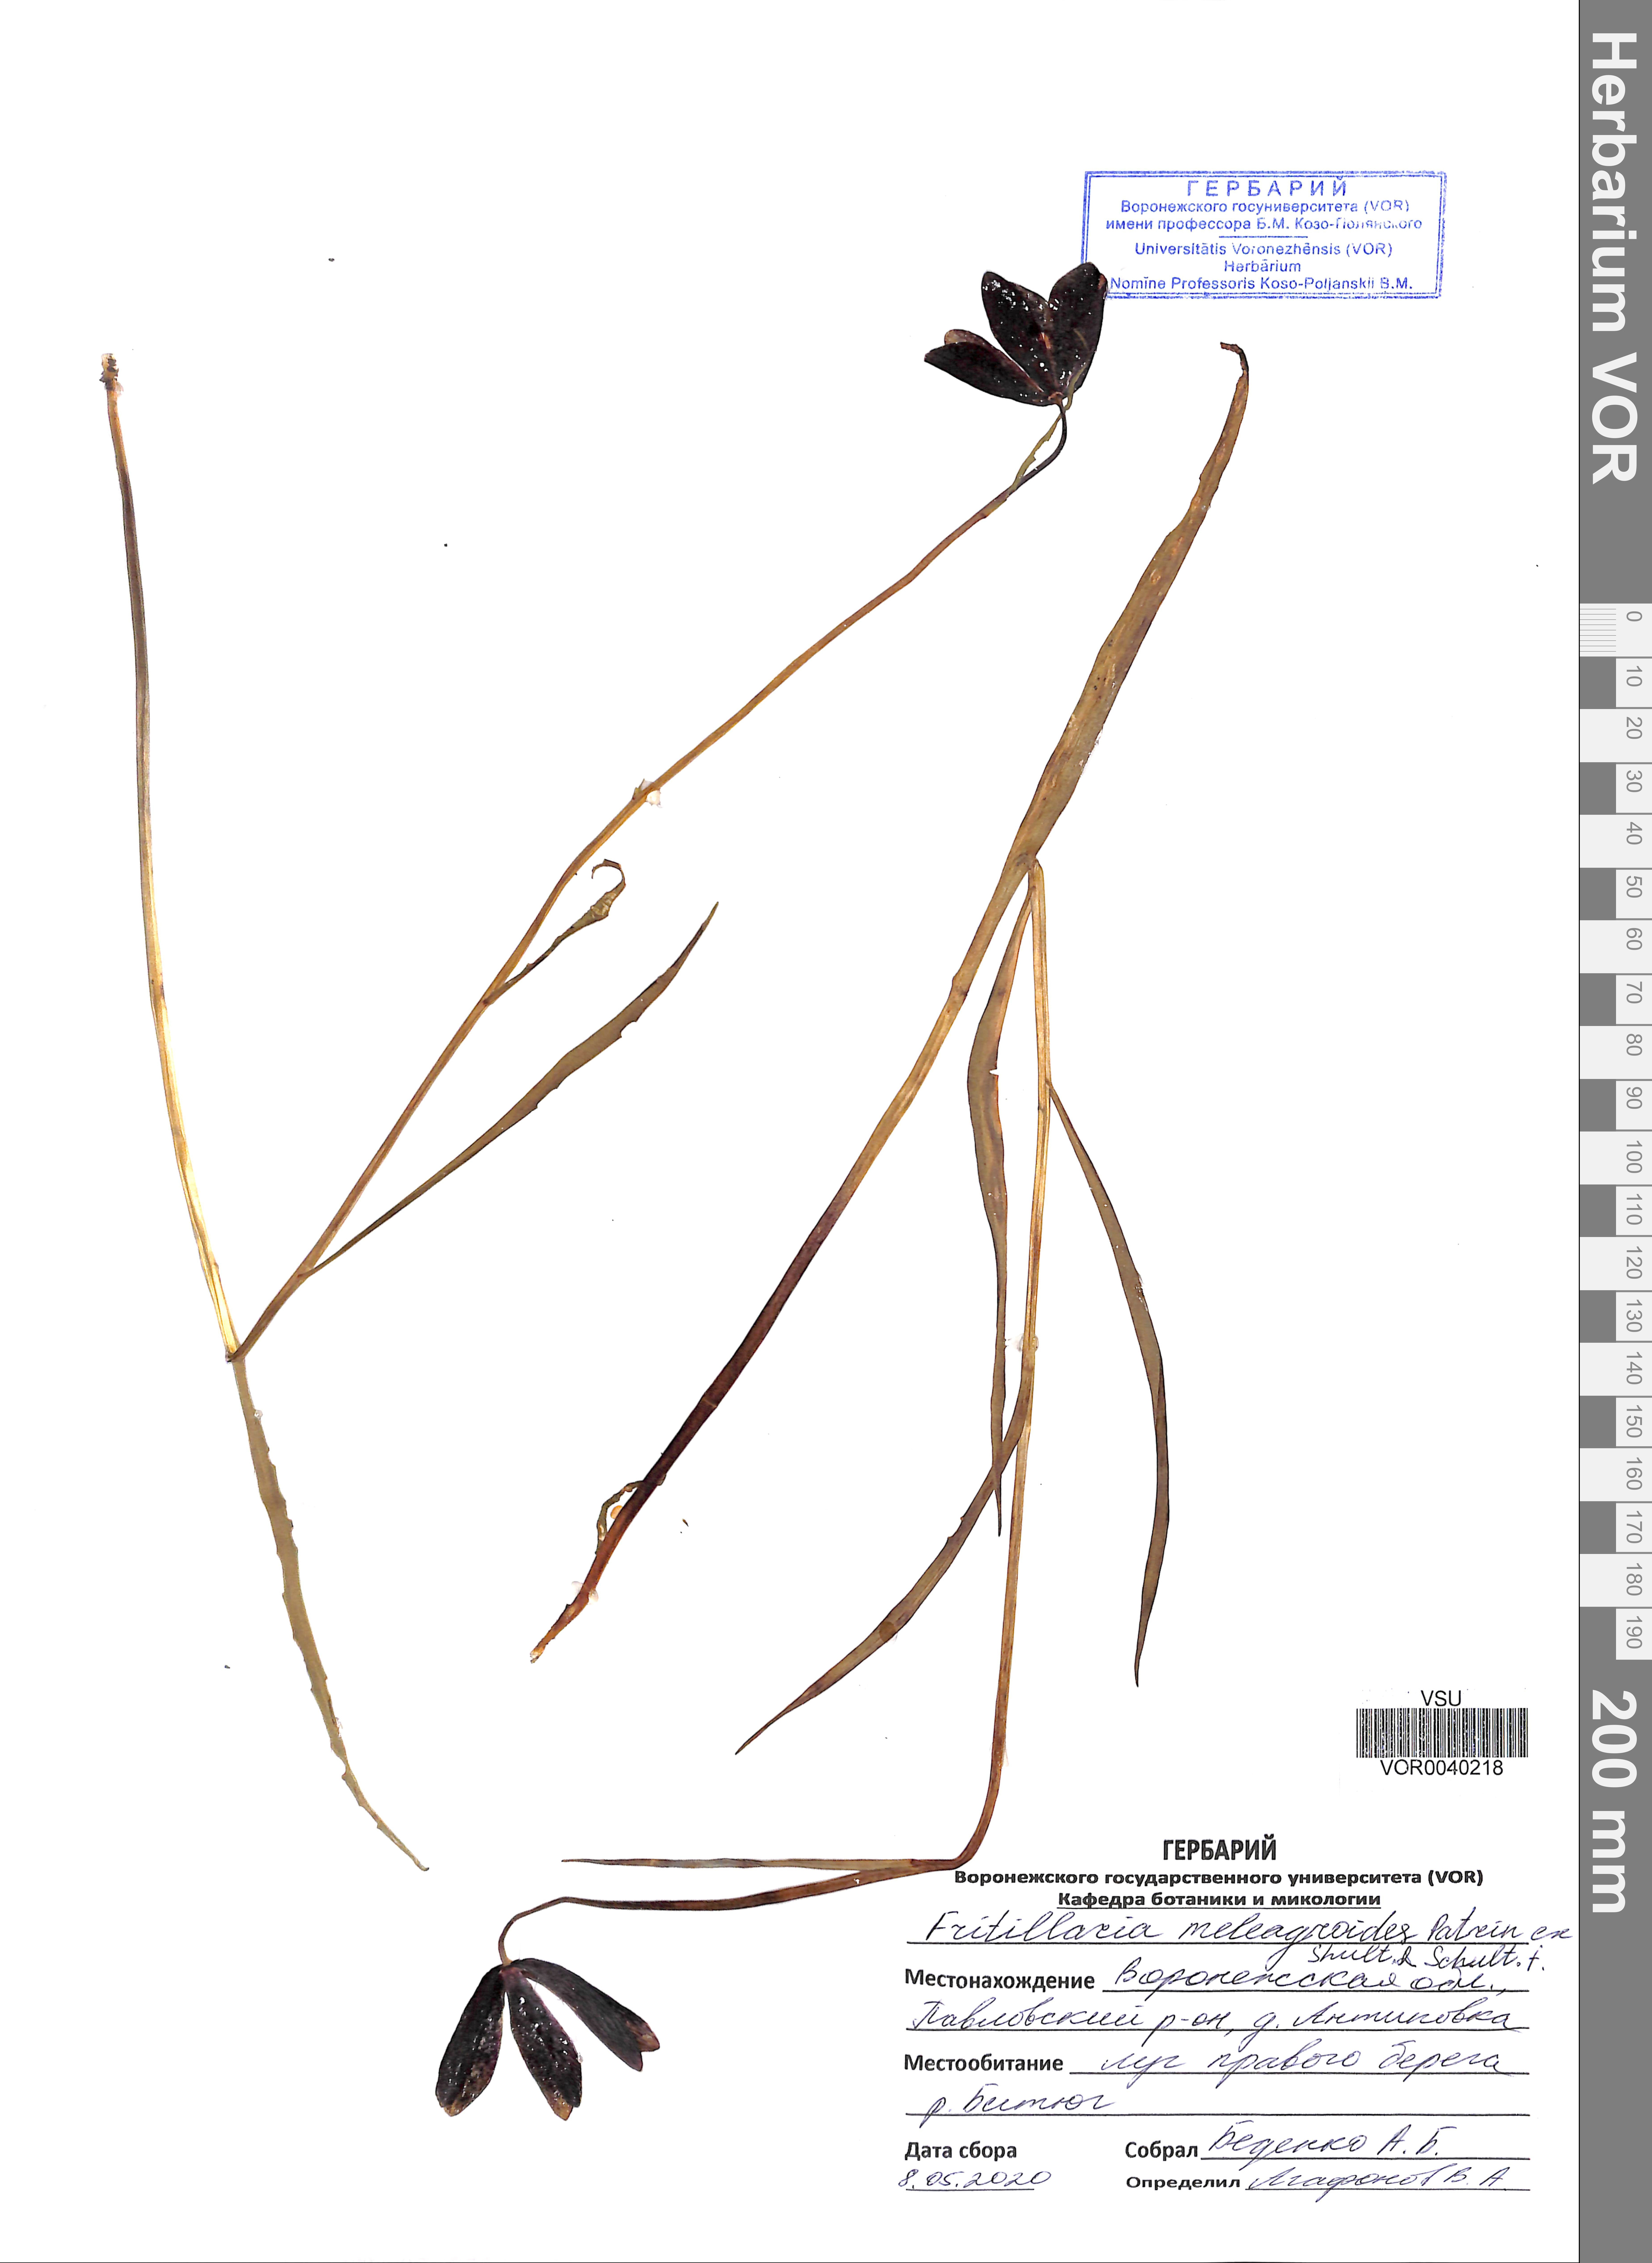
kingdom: Plantae
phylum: Tracheophyta
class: Liliopsida
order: Liliales
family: Liliaceae
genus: Fritillaria
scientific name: Fritillaria meleagroides
